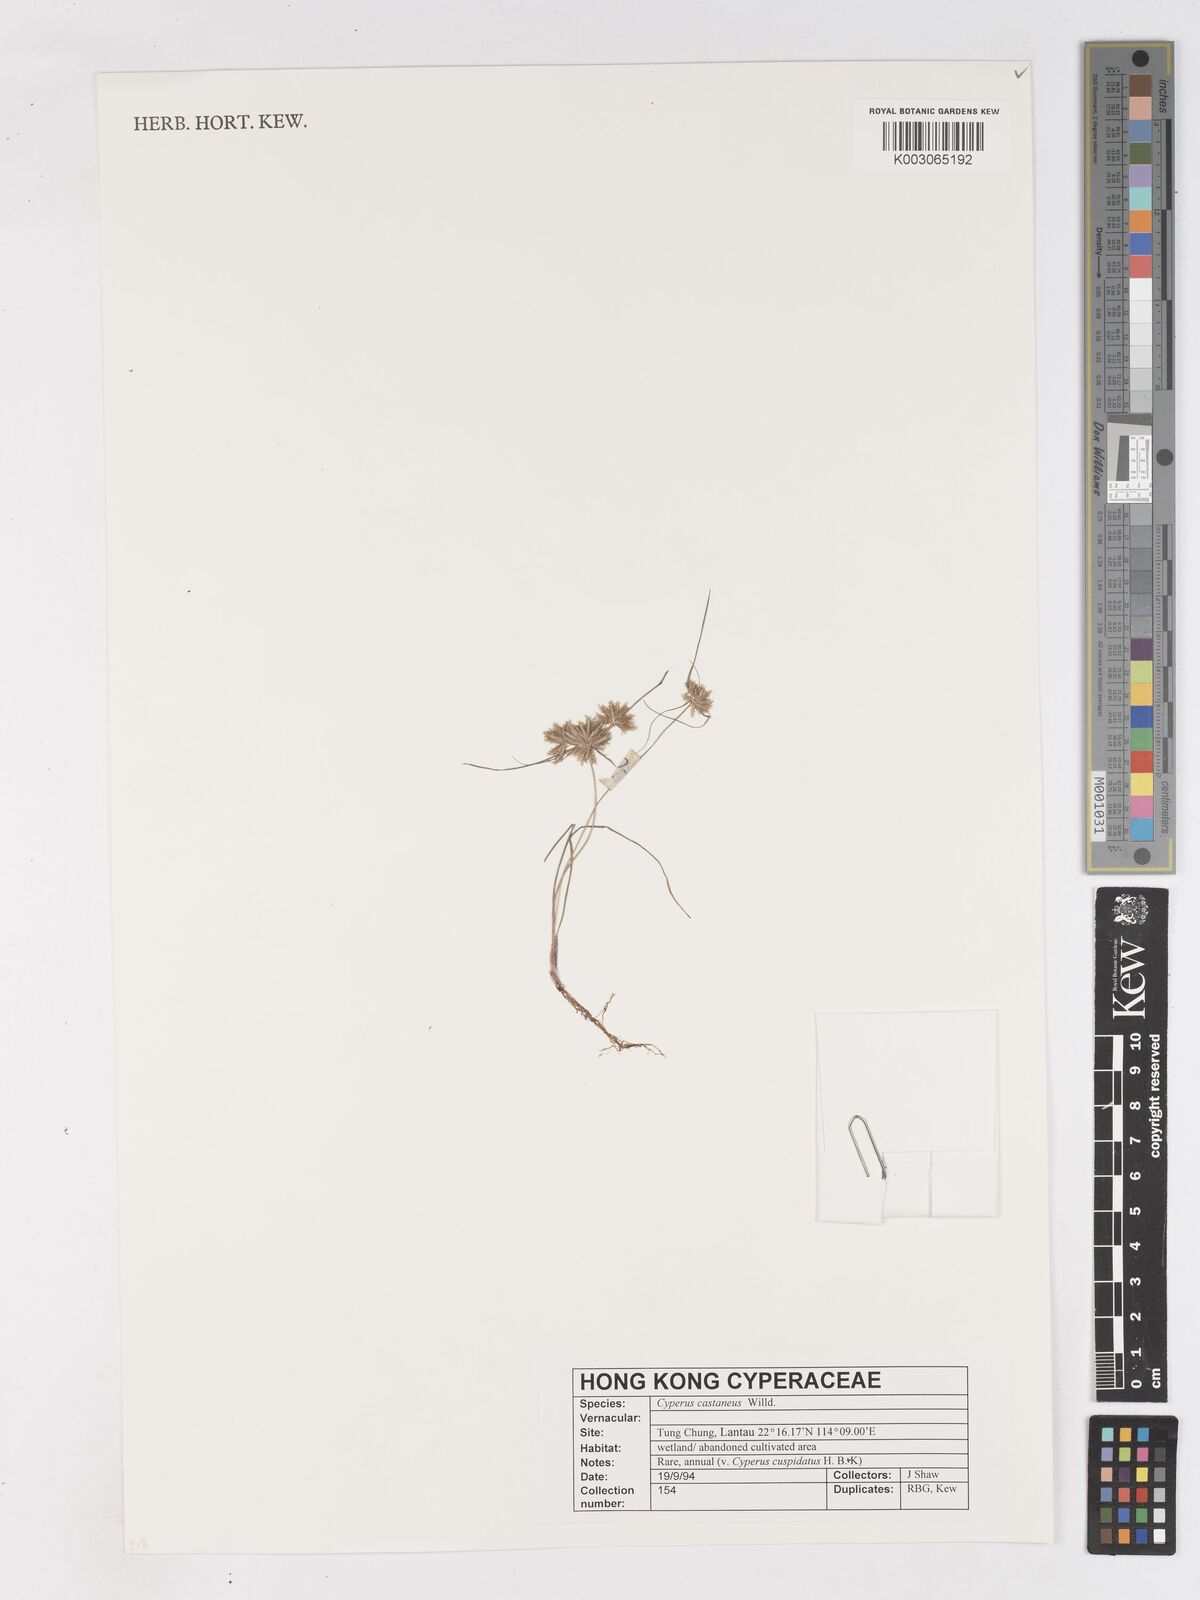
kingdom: Plantae
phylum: Tracheophyta
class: Liliopsida
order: Poales
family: Cyperaceae
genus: Cyperus
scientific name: Cyperus castaneus
